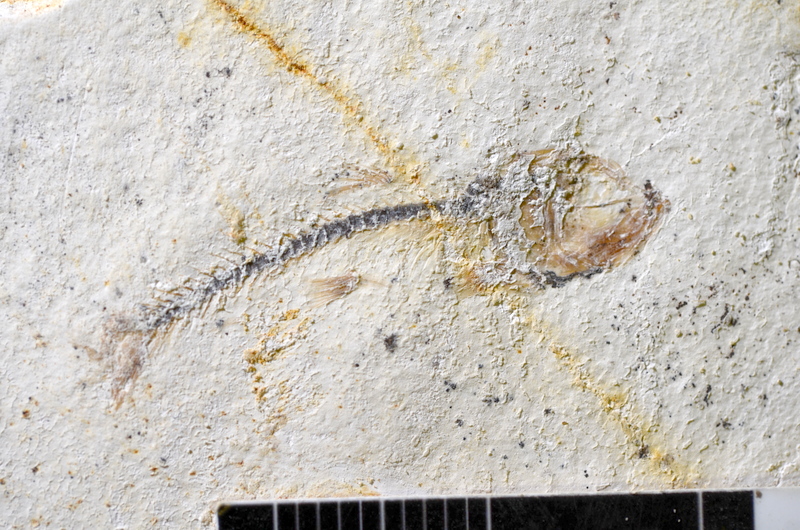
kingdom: Animalia
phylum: Chordata
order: Salmoniformes
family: Orthogonikleithridae
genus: Orthogonikleithrus
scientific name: Orthogonikleithrus hoelli
